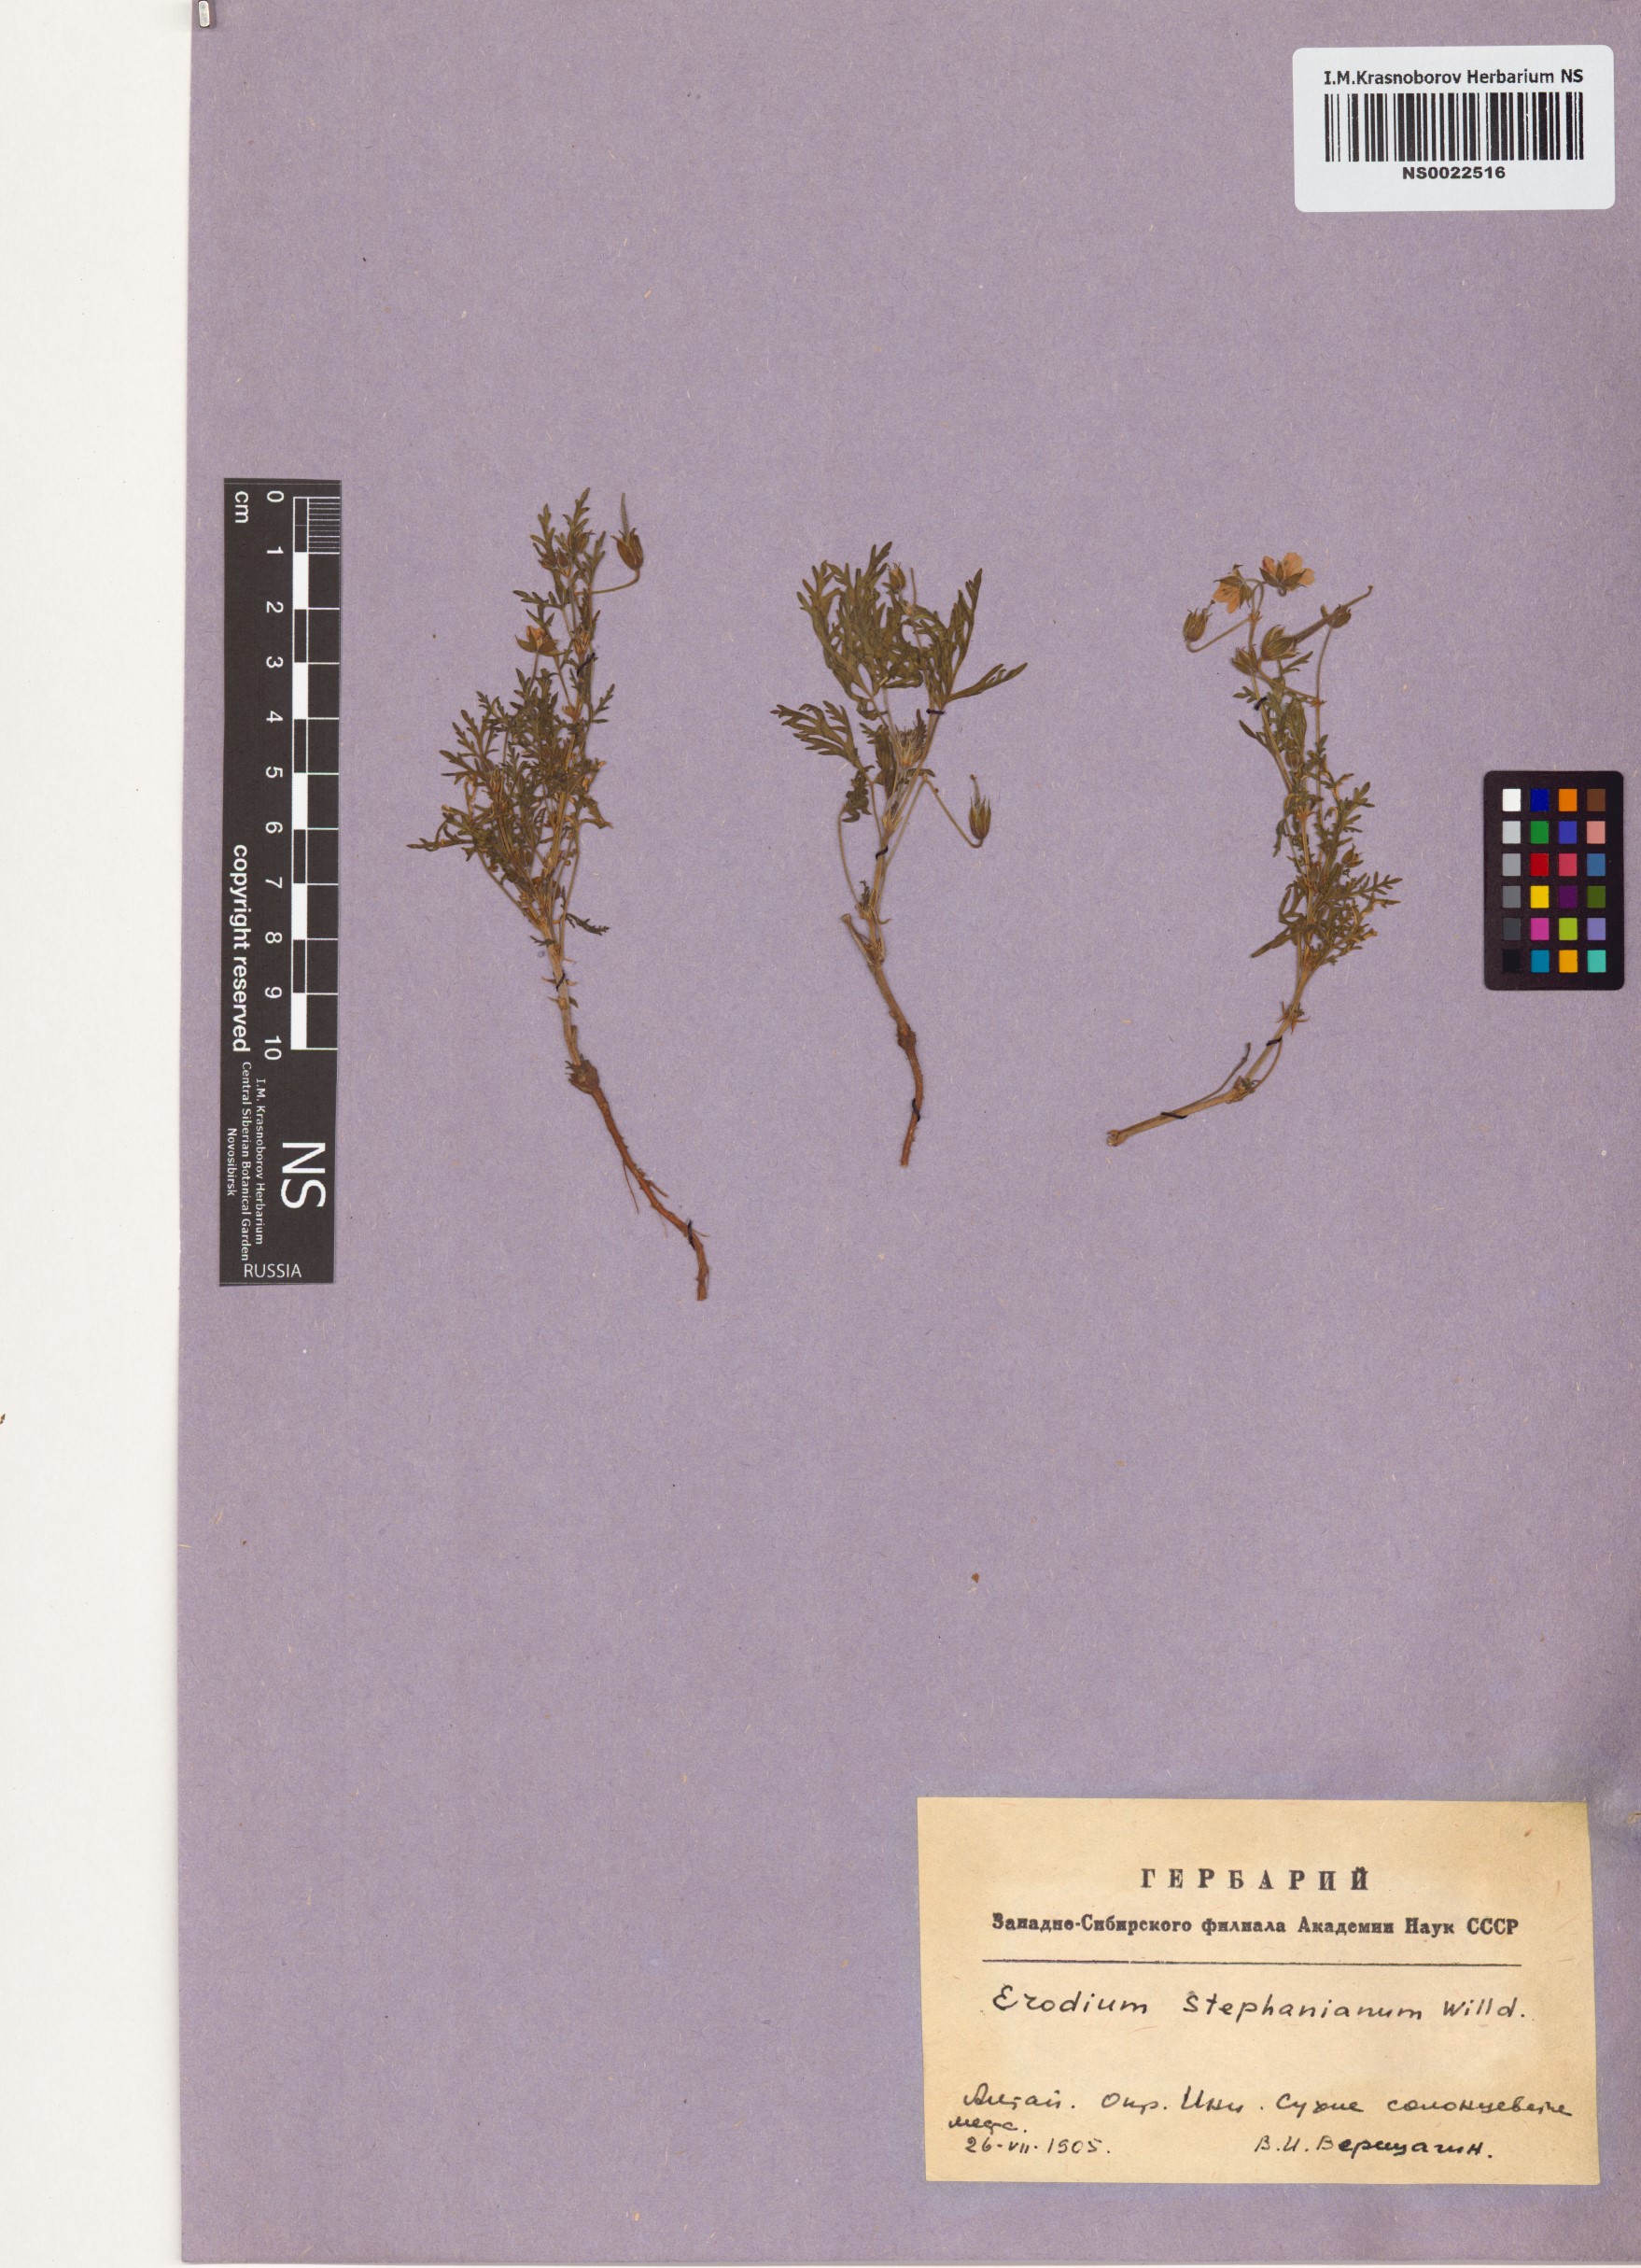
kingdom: Plantae
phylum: Tracheophyta
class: Magnoliopsida
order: Geraniales
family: Geraniaceae
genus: Erodium
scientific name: Erodium stephanianum
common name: Stephen's stork's bill
